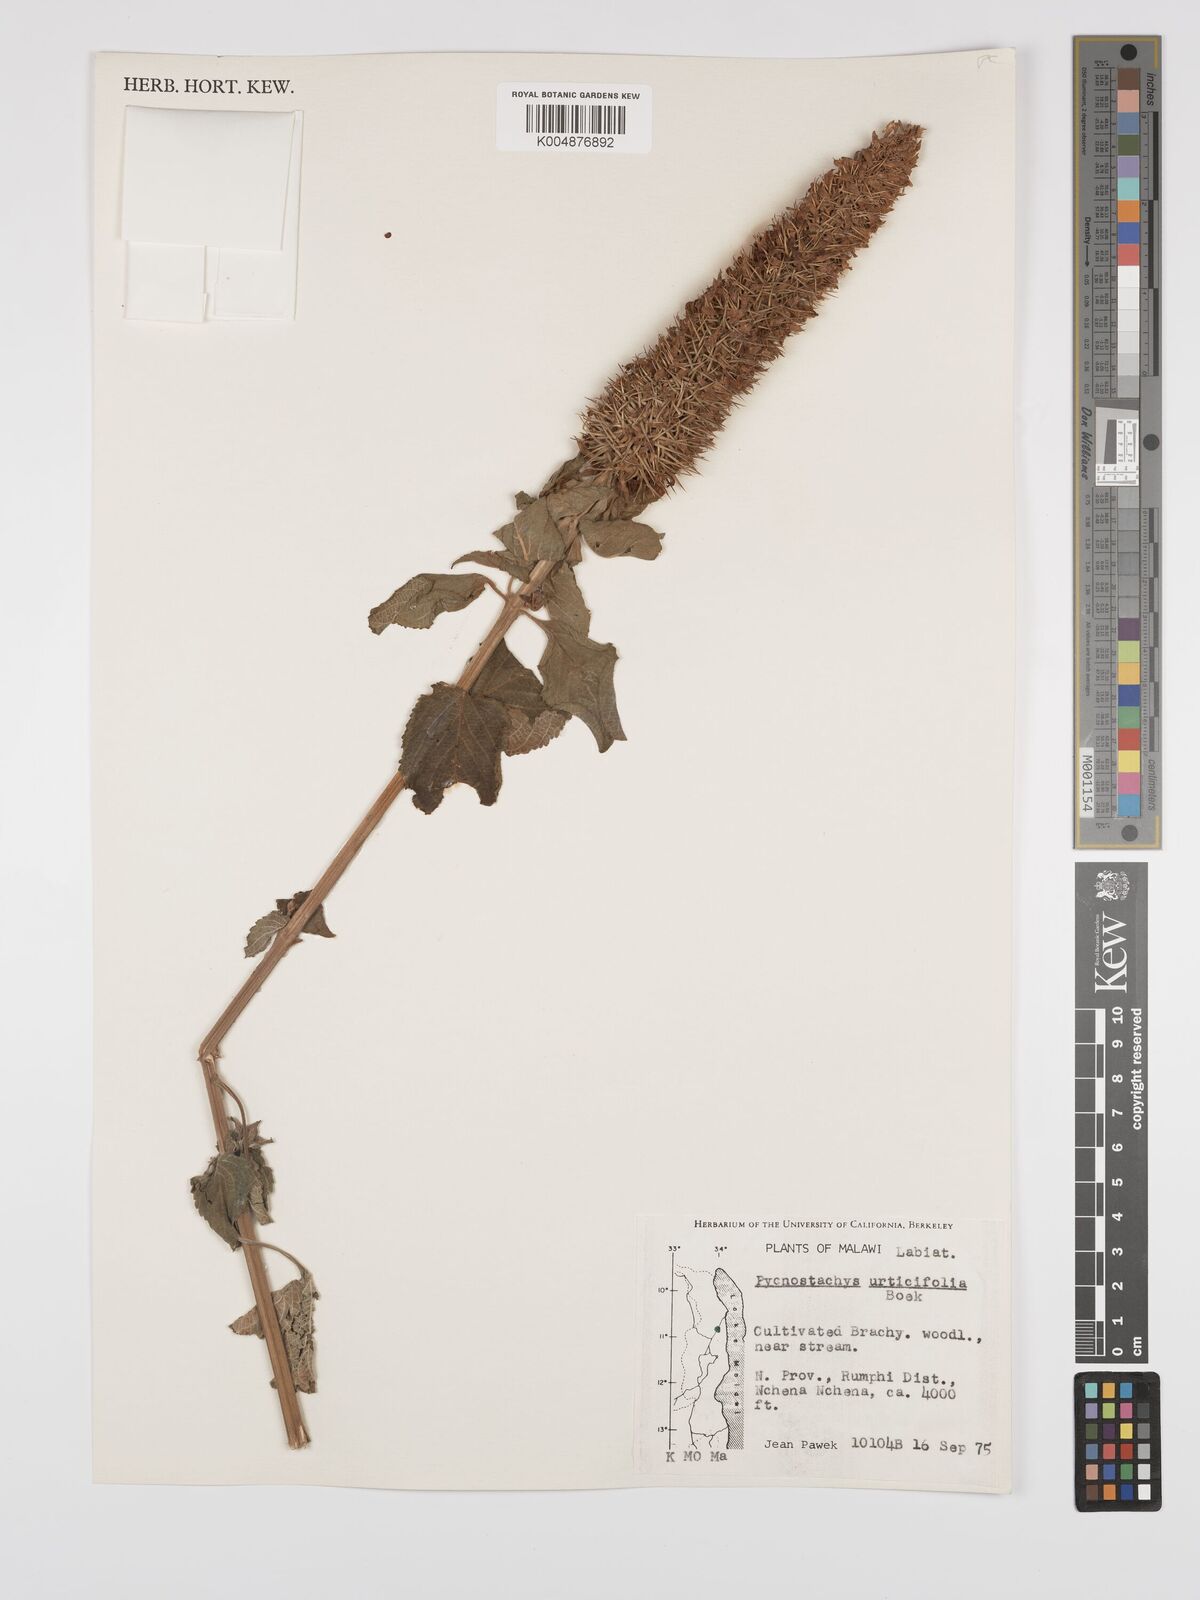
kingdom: Plantae
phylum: Tracheophyta
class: Magnoliopsida
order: Lamiales
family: Lamiaceae
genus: Coleus
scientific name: Coleus livingstonei
